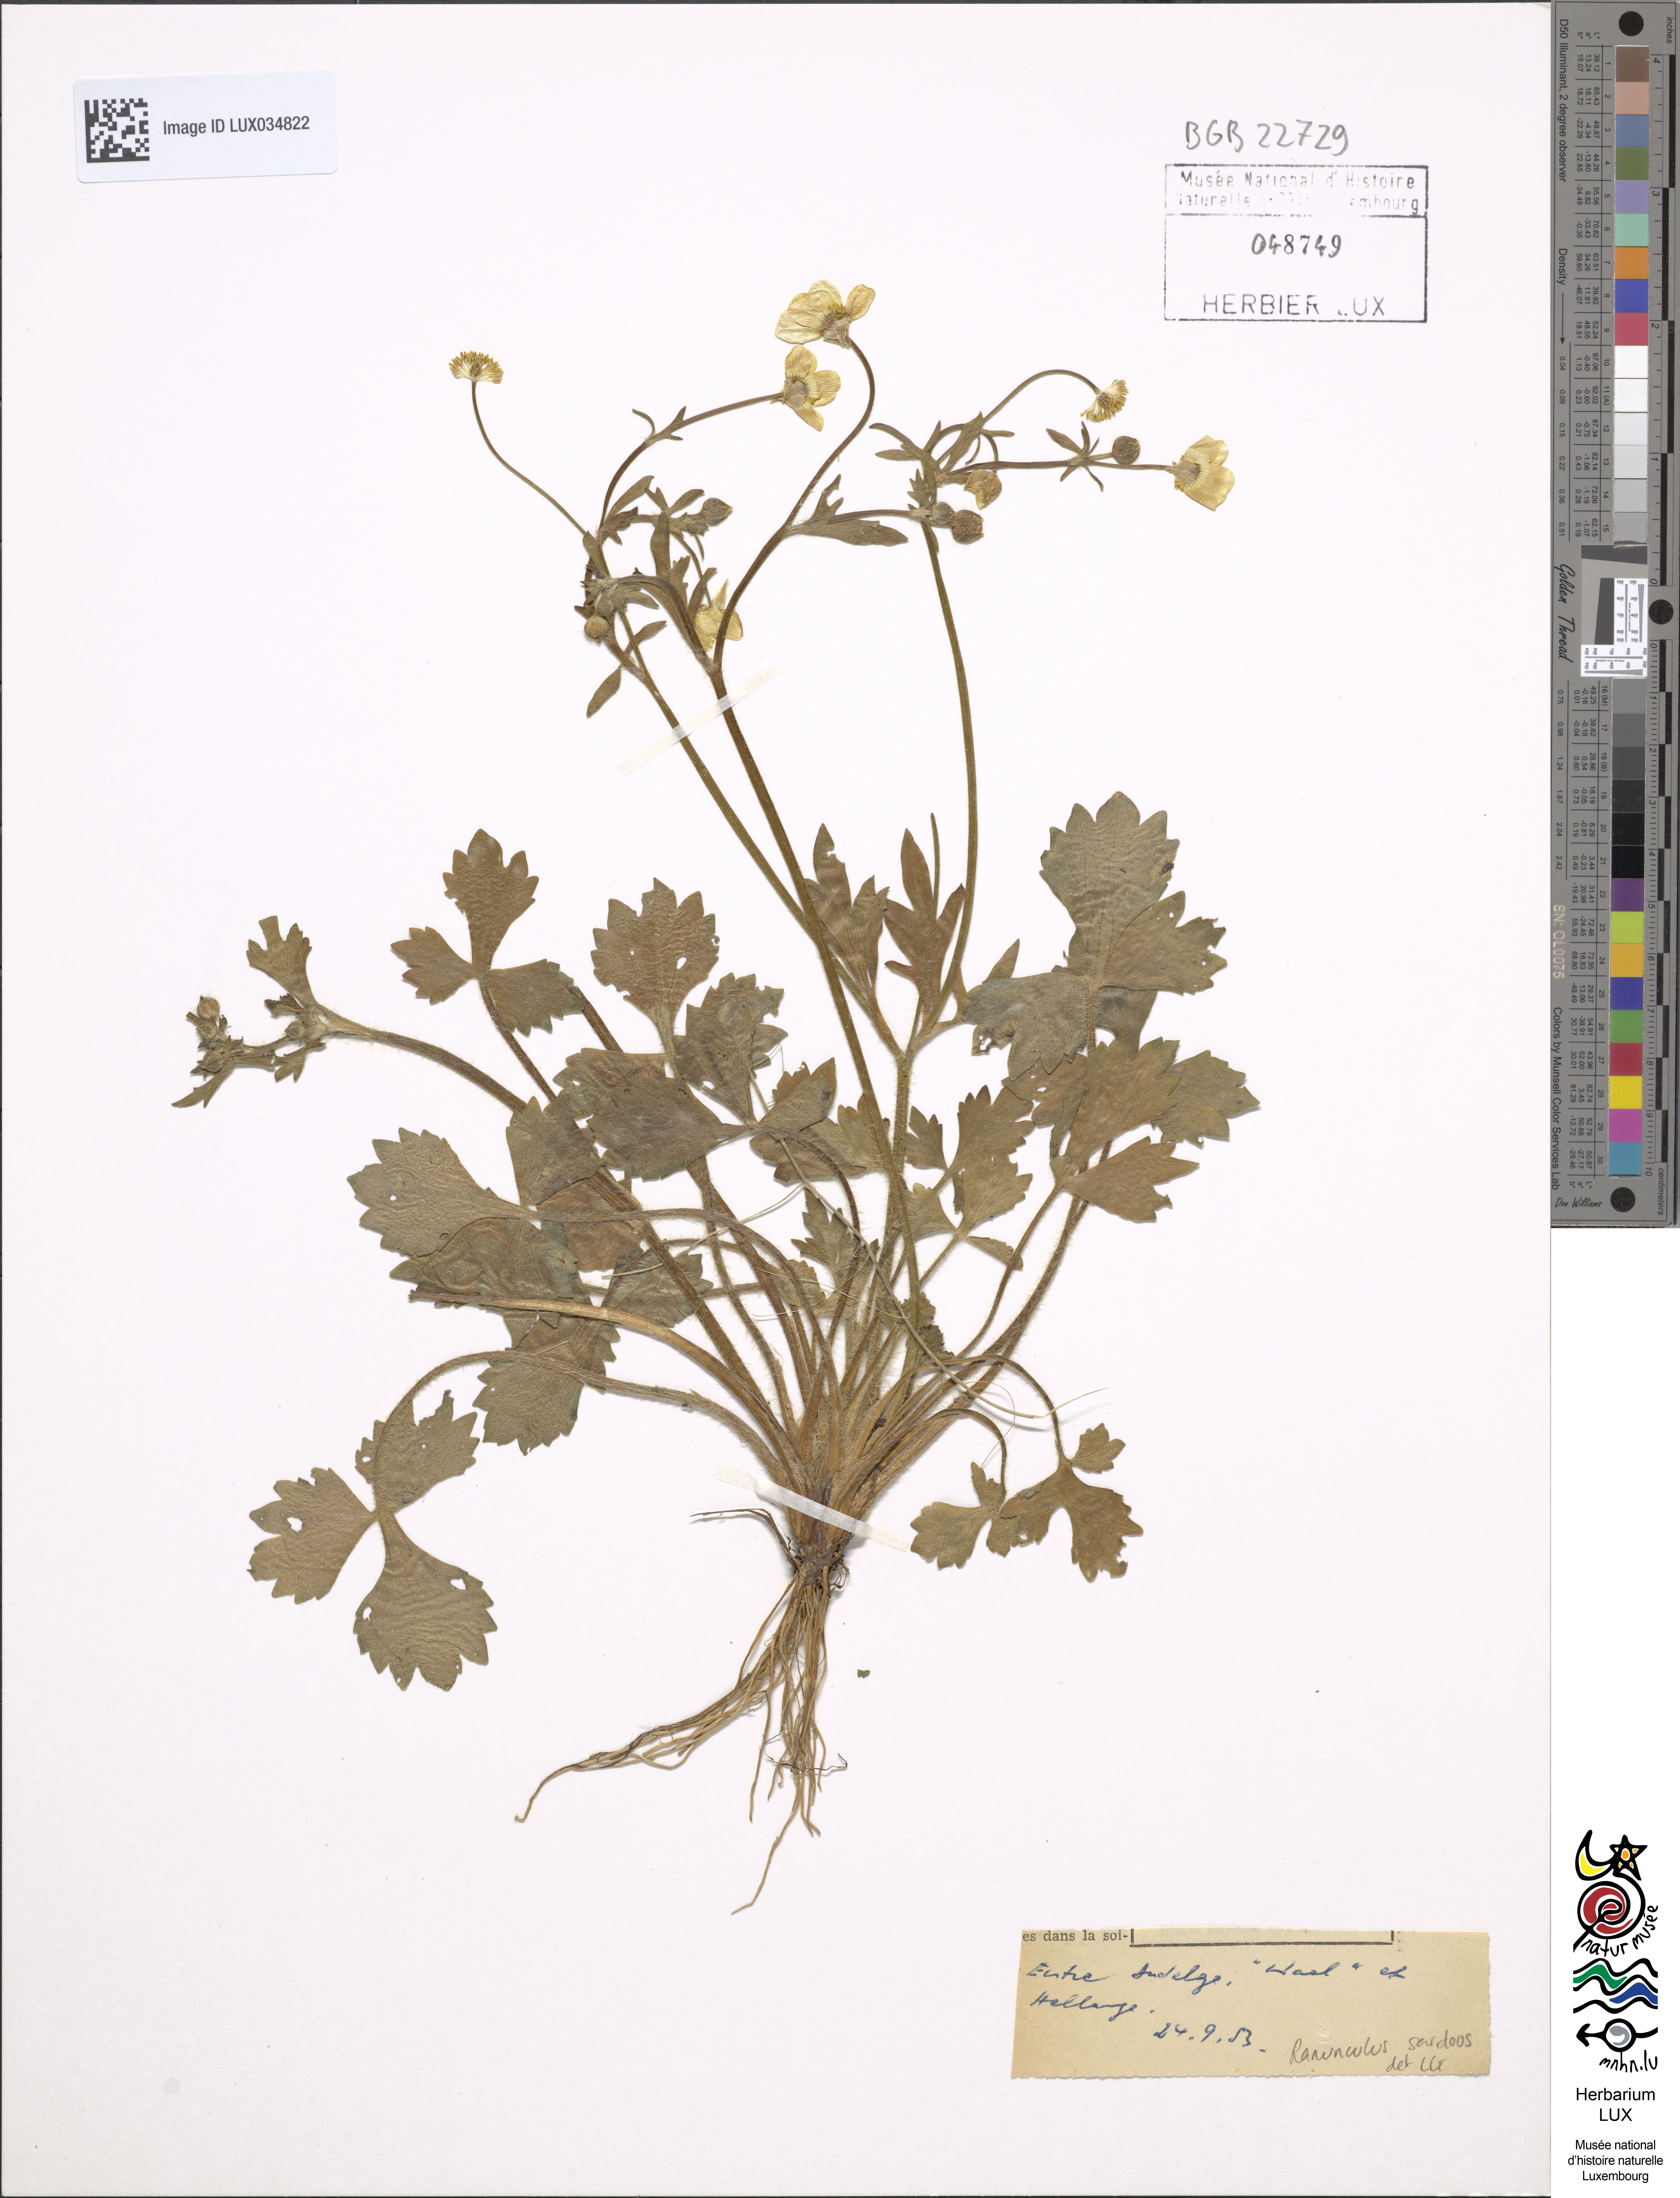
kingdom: Plantae
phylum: Tracheophyta
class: Magnoliopsida
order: Ranunculales
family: Ranunculaceae
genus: Ranunculus
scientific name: Ranunculus sardous
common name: Hairy buttercup
